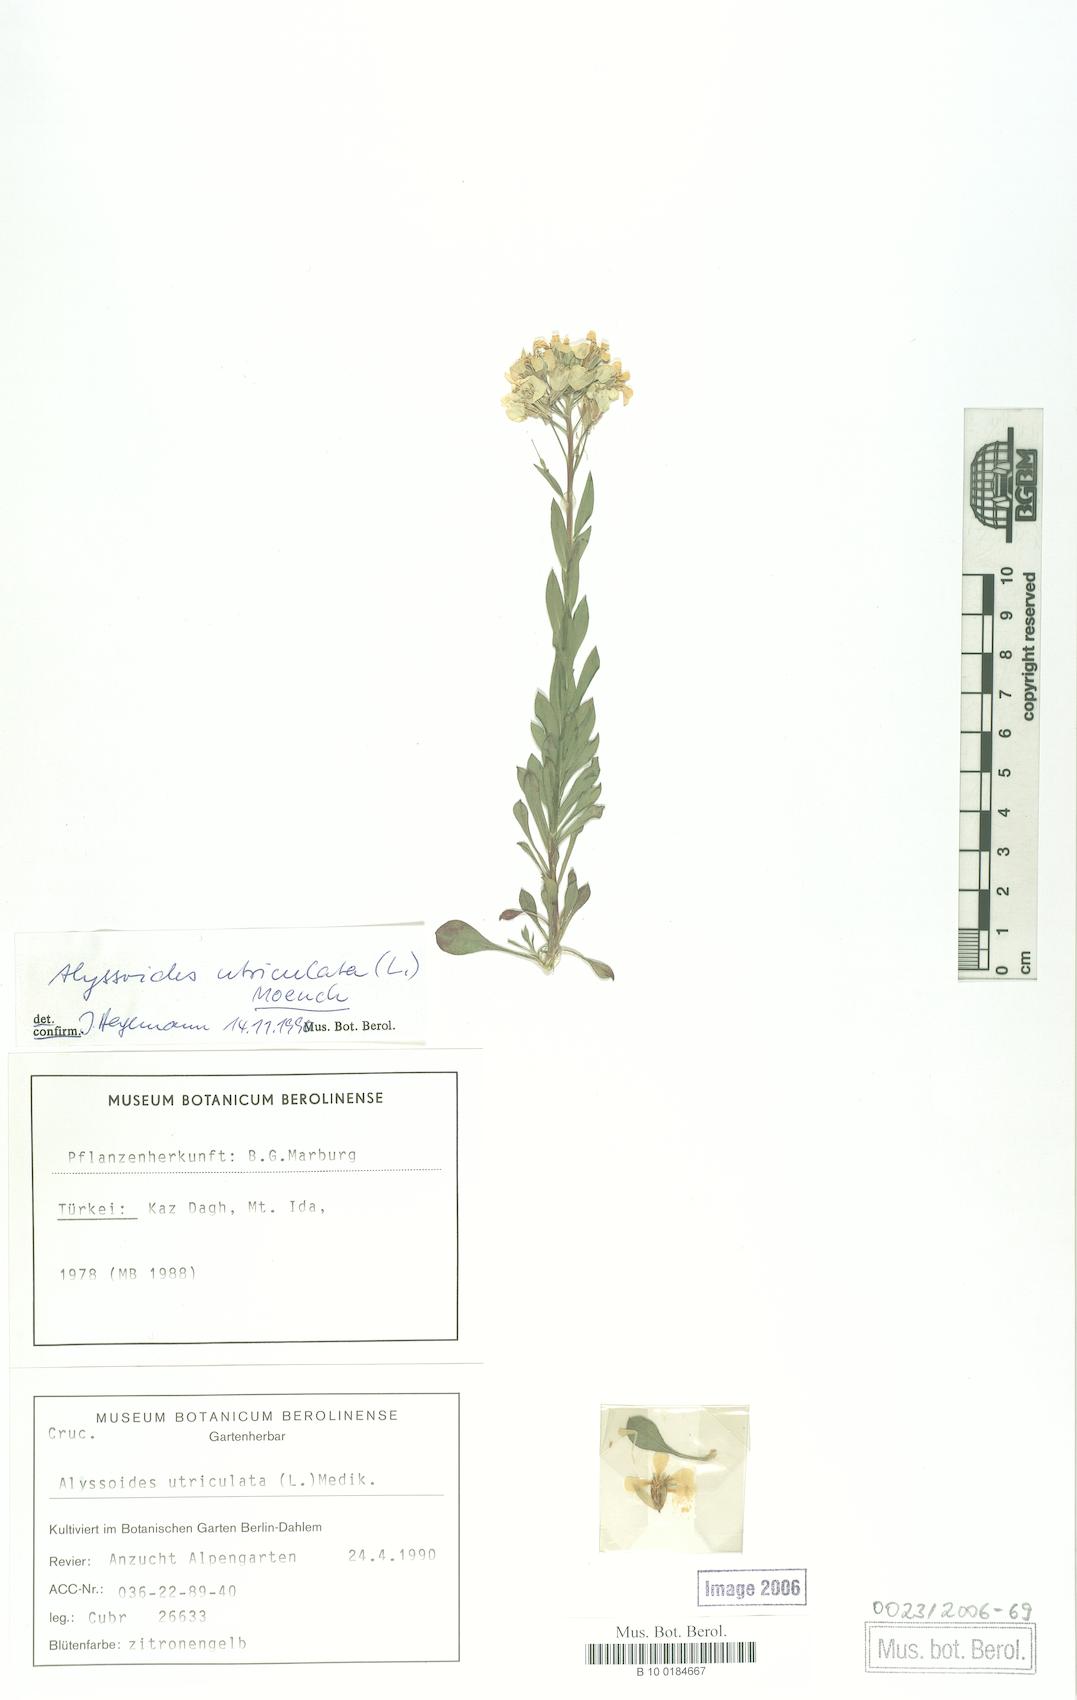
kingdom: Plantae
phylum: Tracheophyta
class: Magnoliopsida
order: Brassicales
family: Brassicaceae
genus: Alyssoides
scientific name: Alyssoides utriculata
